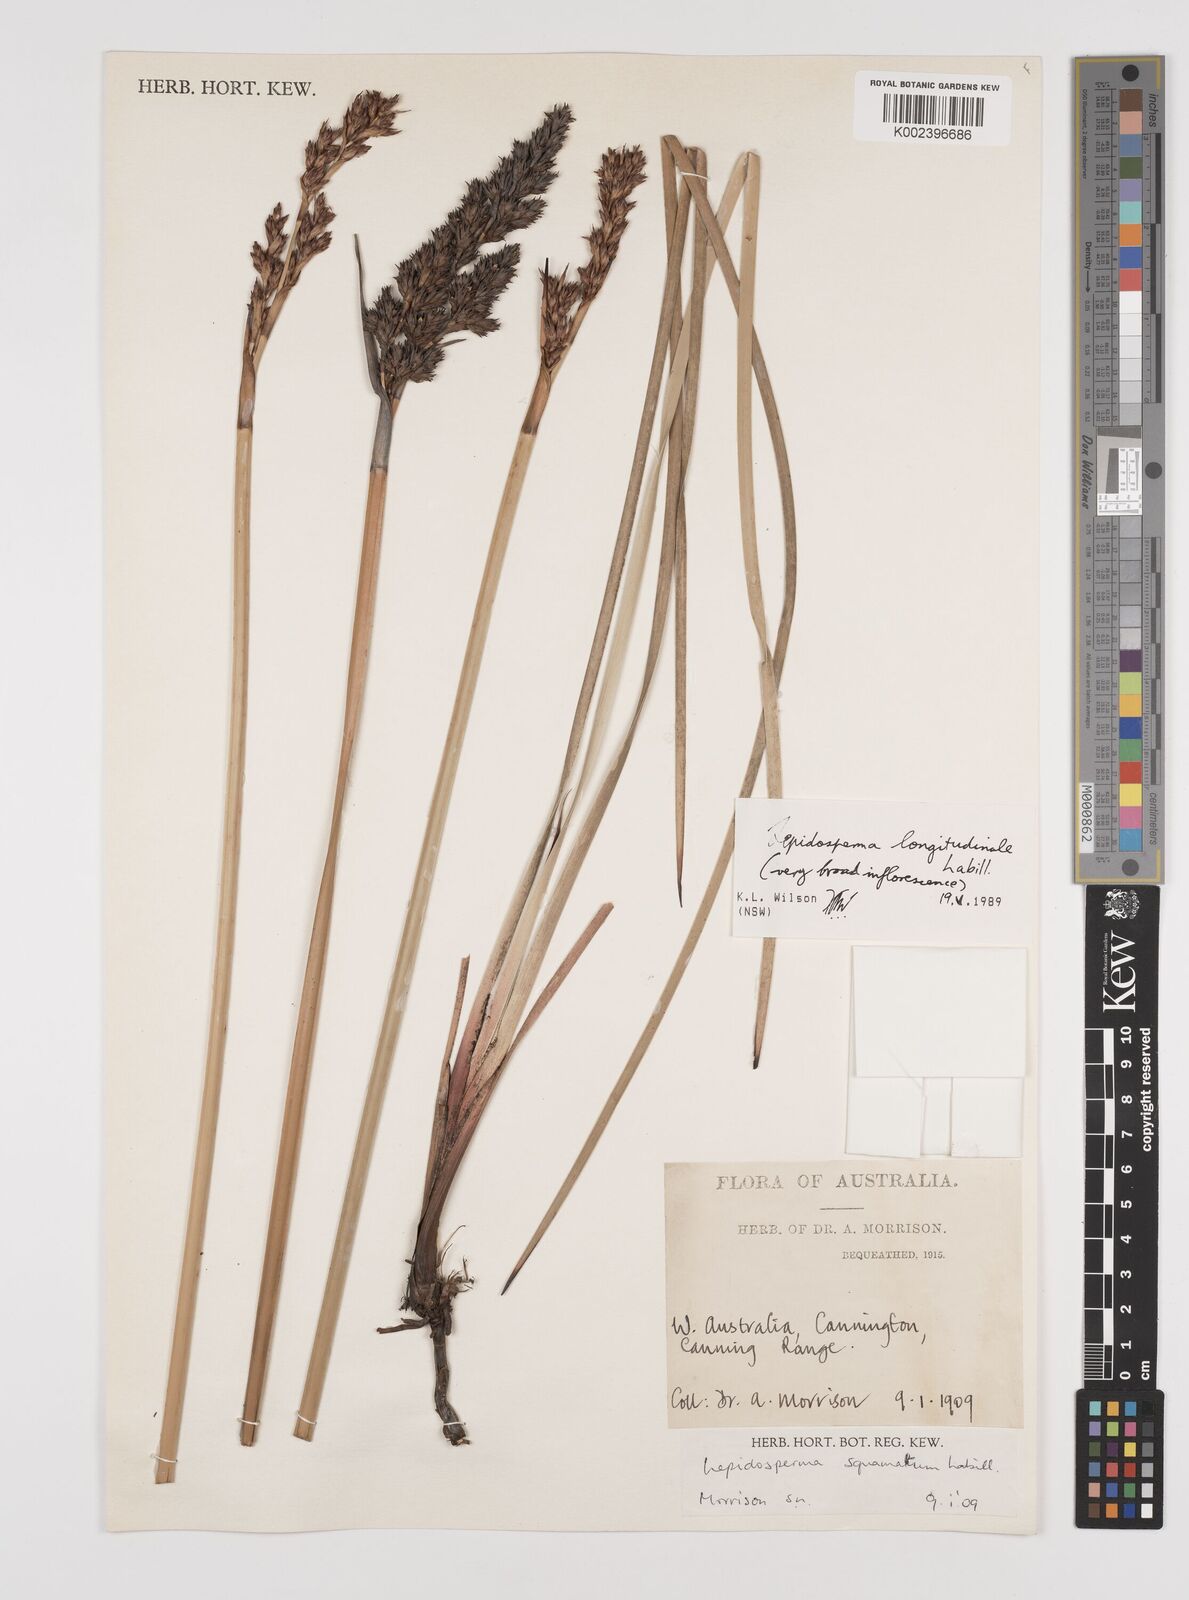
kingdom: Plantae
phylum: Tracheophyta
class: Liliopsida
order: Poales
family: Cyperaceae
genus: Lepidosperma
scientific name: Lepidosperma longitudinale
